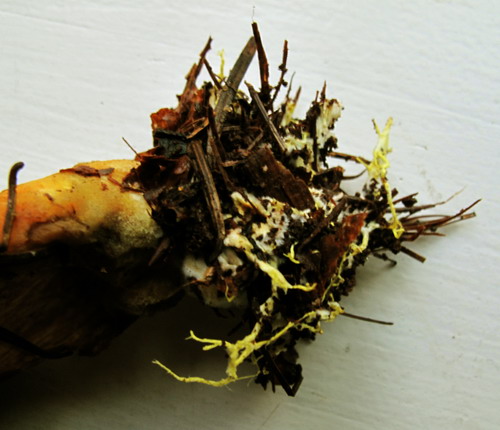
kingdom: Fungi
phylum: Basidiomycota
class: Agaricomycetes
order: Boletales
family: Boletaceae
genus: Xerocomus
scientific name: Xerocomus ferrugineus
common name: vaskeskinds-rørhat
